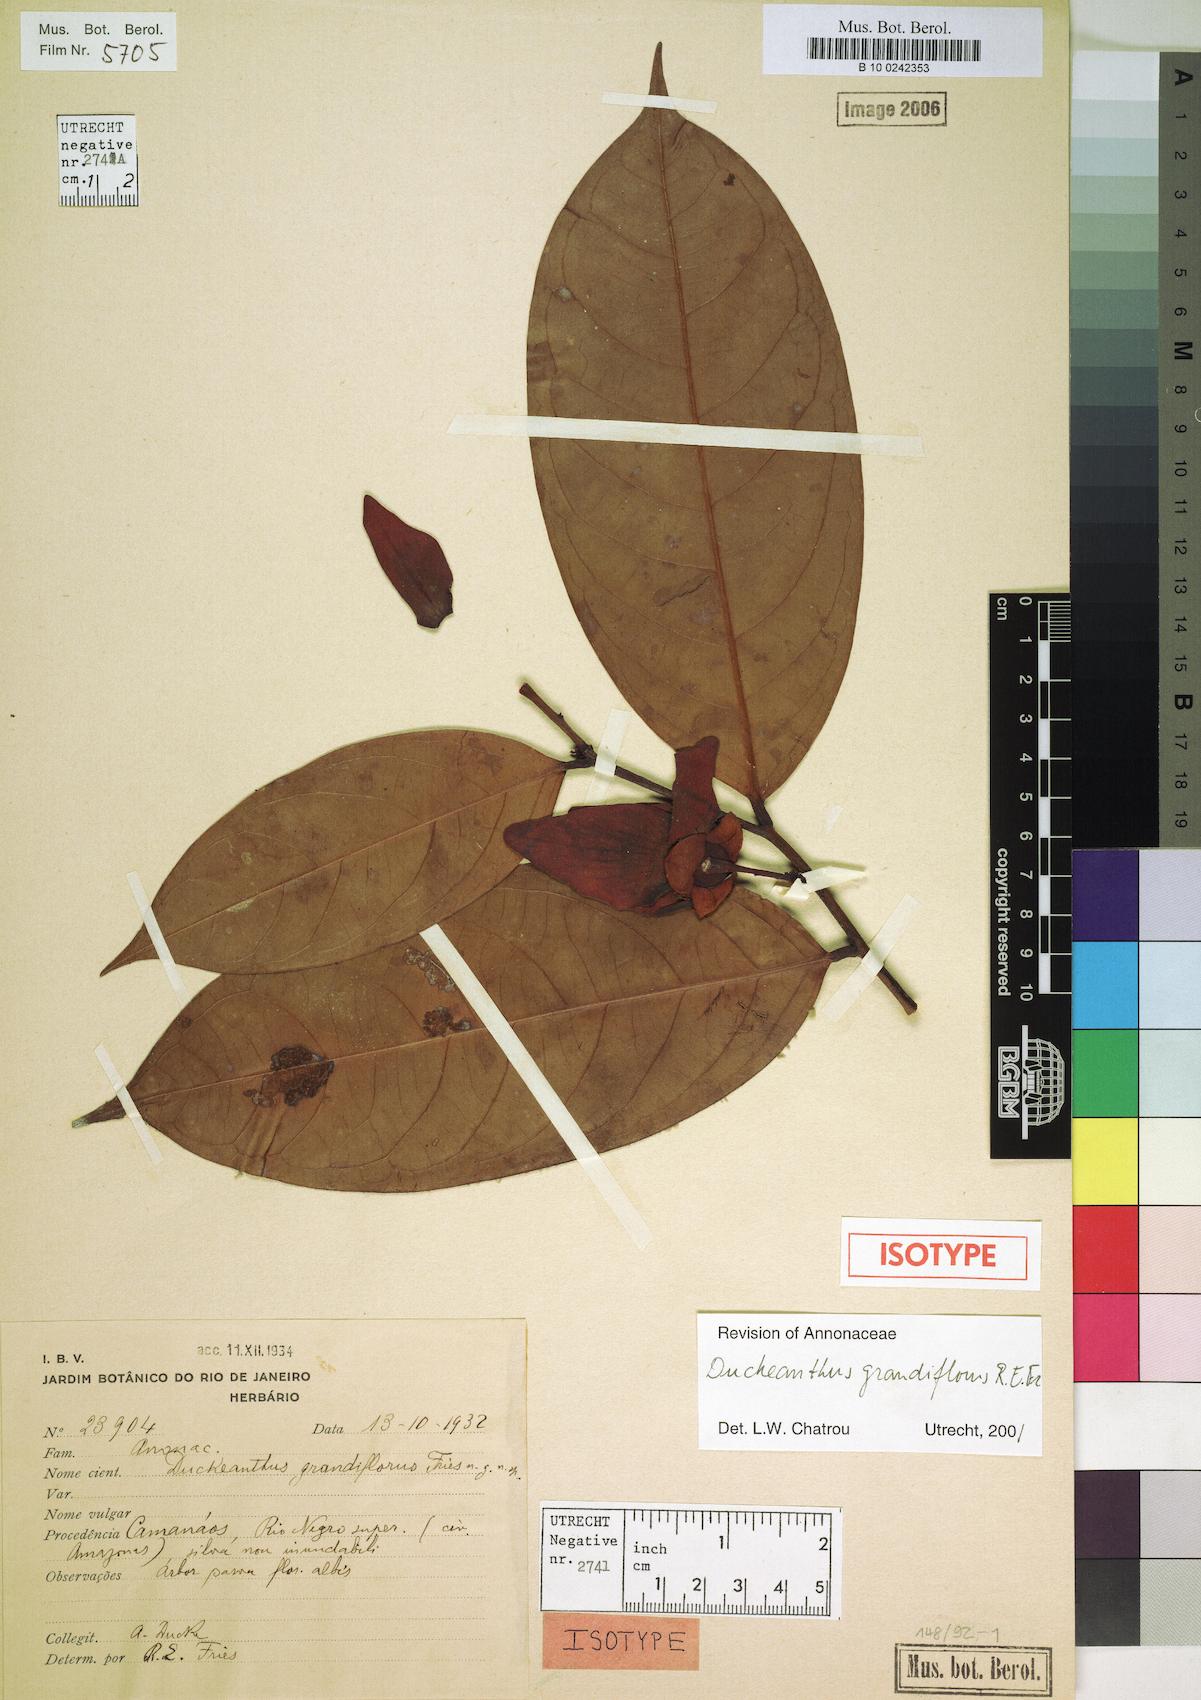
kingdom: Plantae
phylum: Tracheophyta
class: Magnoliopsida
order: Magnoliales
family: Annonaceae
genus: Duckeanthus
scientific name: Duckeanthus grandiflorus
